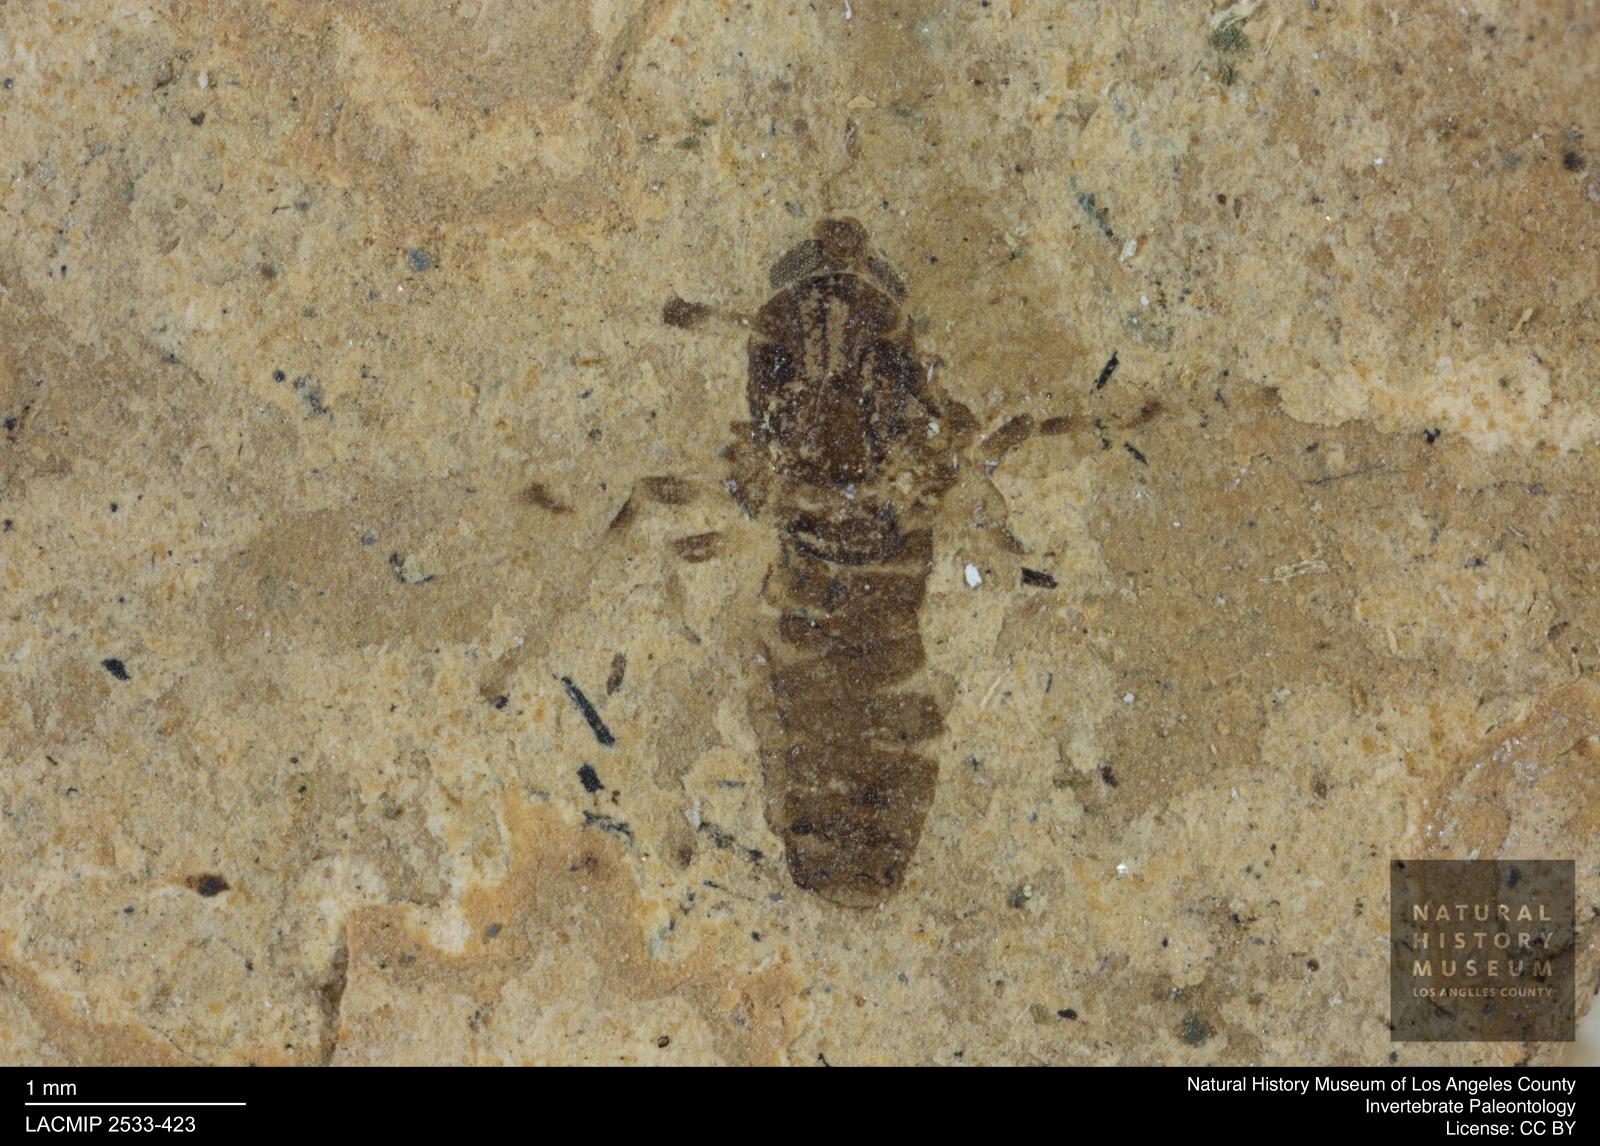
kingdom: Animalia
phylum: Arthropoda
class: Insecta
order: Diptera
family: Chironomidae
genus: Tanypus
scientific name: Tanypus pagasti
